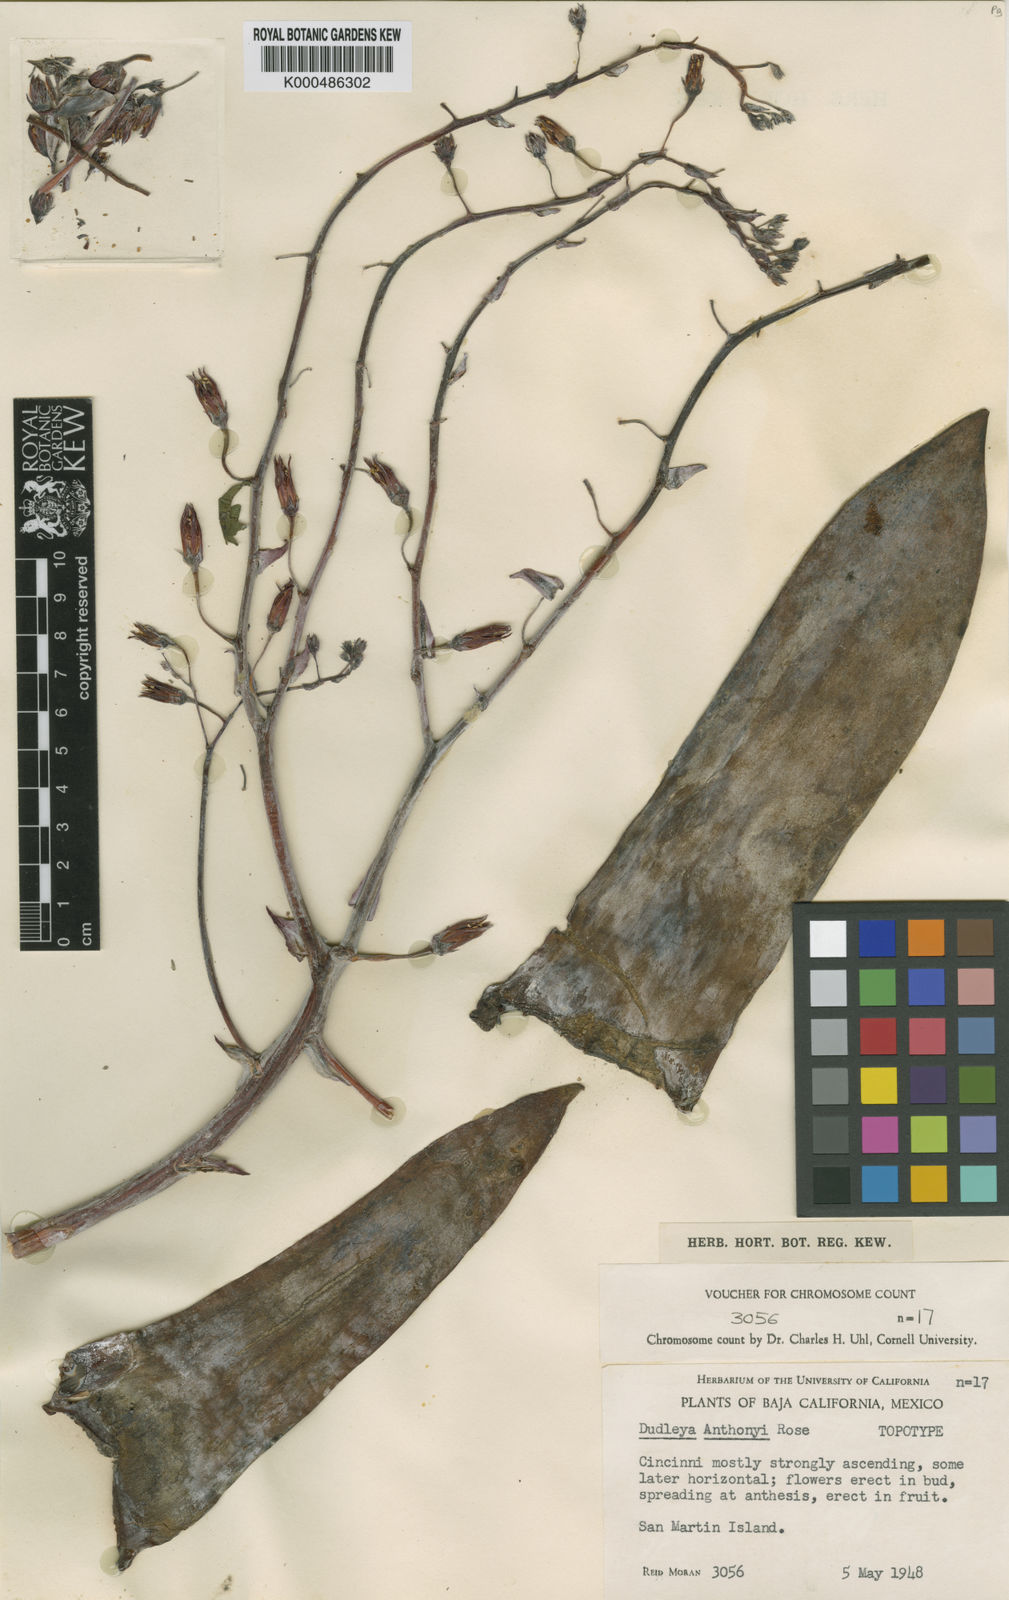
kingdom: Plantae
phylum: Tracheophyta
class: Magnoliopsida
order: Saxifragales
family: Crassulaceae
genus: Dudleya
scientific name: Dudleya anthonyi
